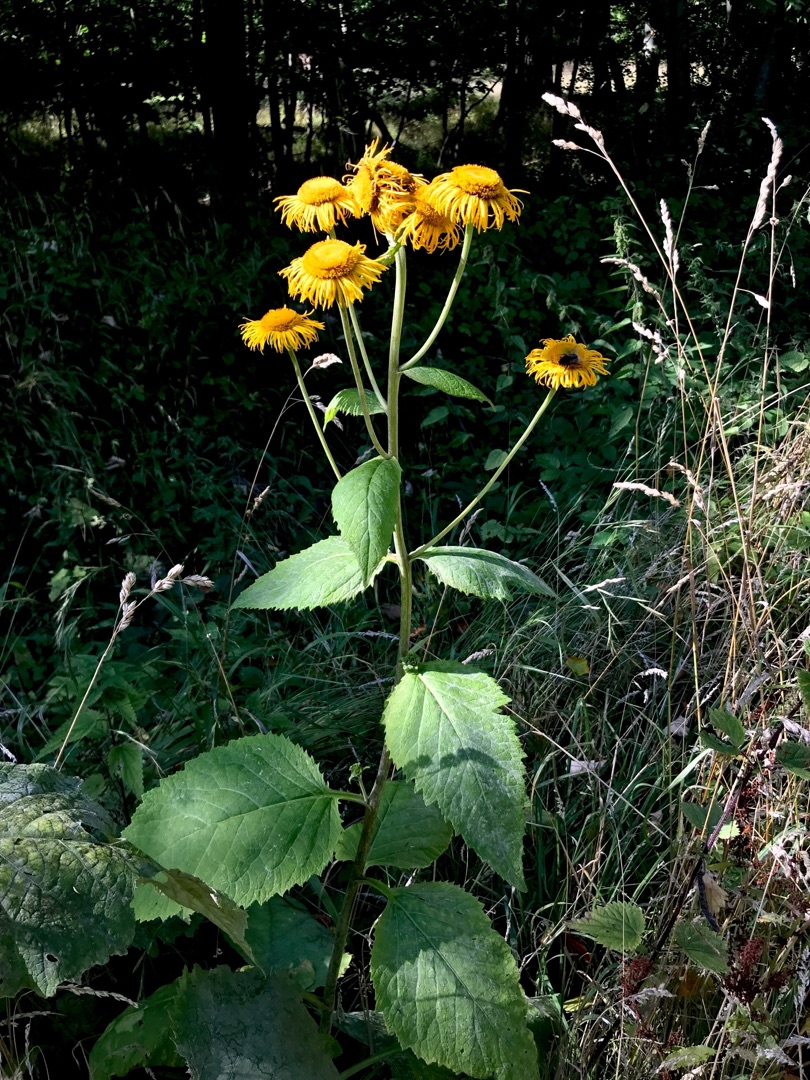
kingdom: Plantae
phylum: Tracheophyta
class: Magnoliopsida
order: Asterales
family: Asteraceae
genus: Telekia
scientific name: Telekia speciosa
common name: Tusindstråle
